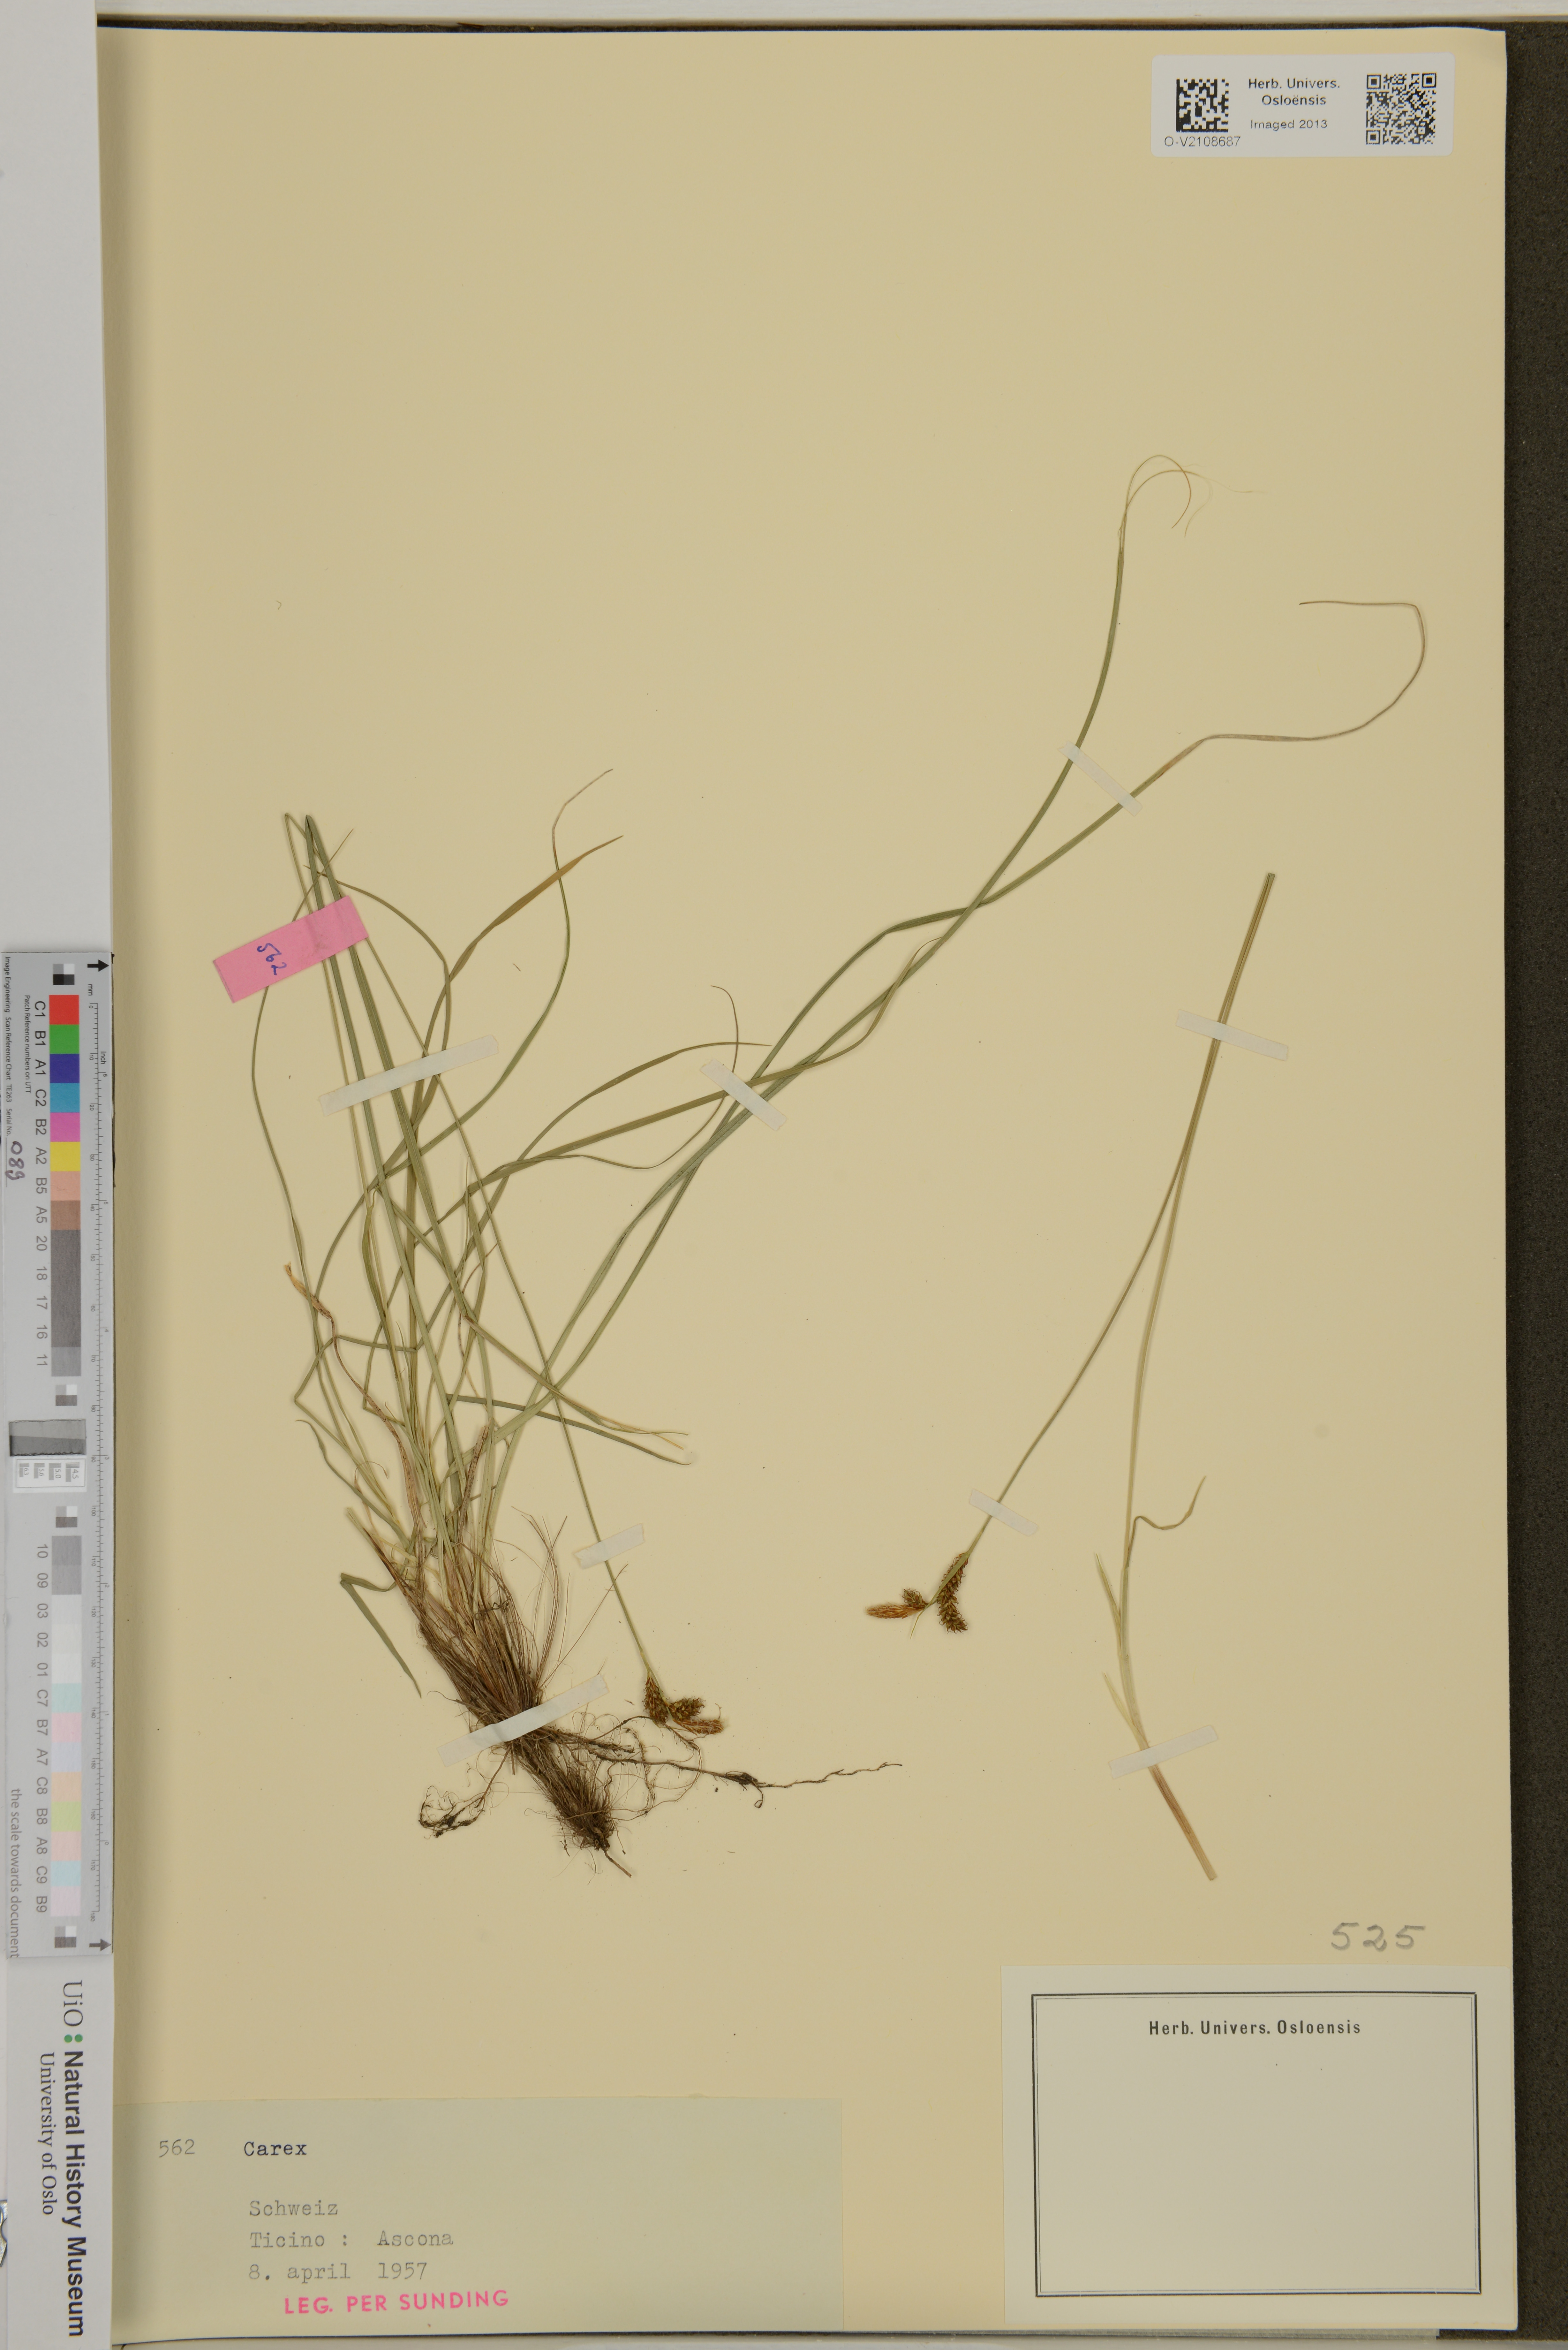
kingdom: Plantae
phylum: Tracheophyta
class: Liliopsida
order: Poales
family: Cyperaceae
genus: Carex
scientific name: Carex
